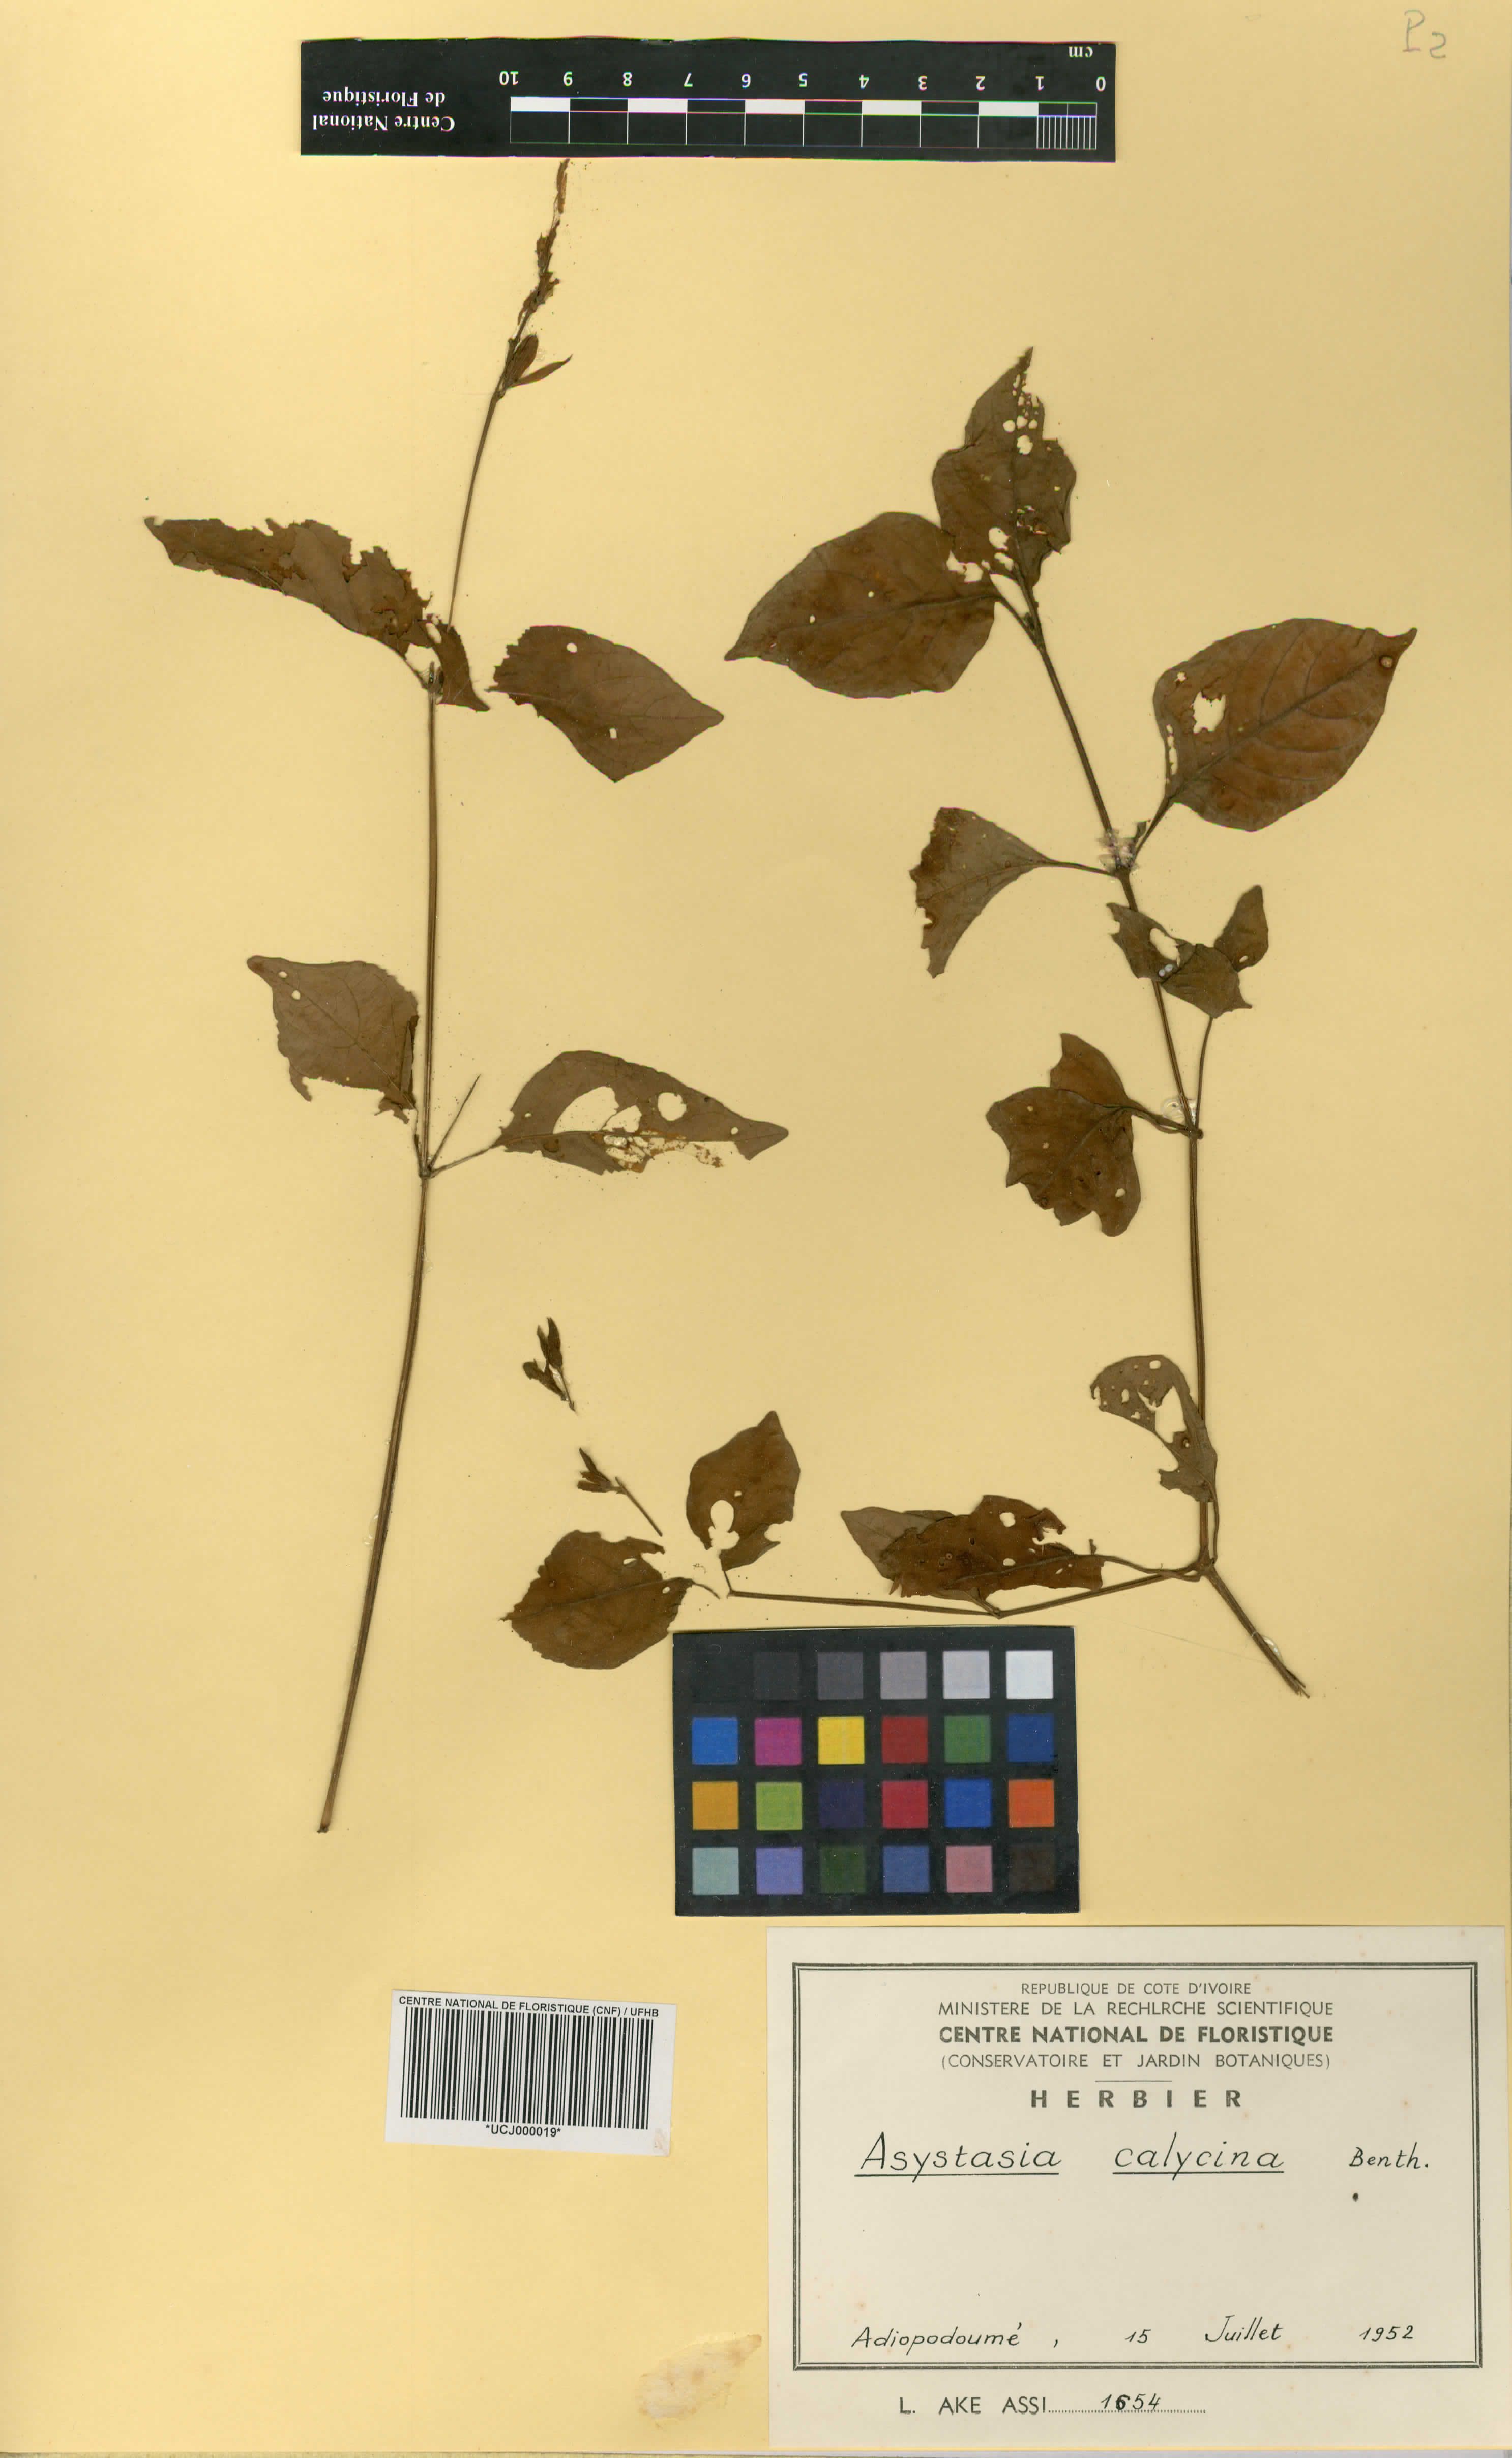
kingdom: Plantae
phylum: Tracheophyta
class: Magnoliopsida
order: Lamiales
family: Acanthaceae
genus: Asystasia
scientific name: Asystasia buettneri
